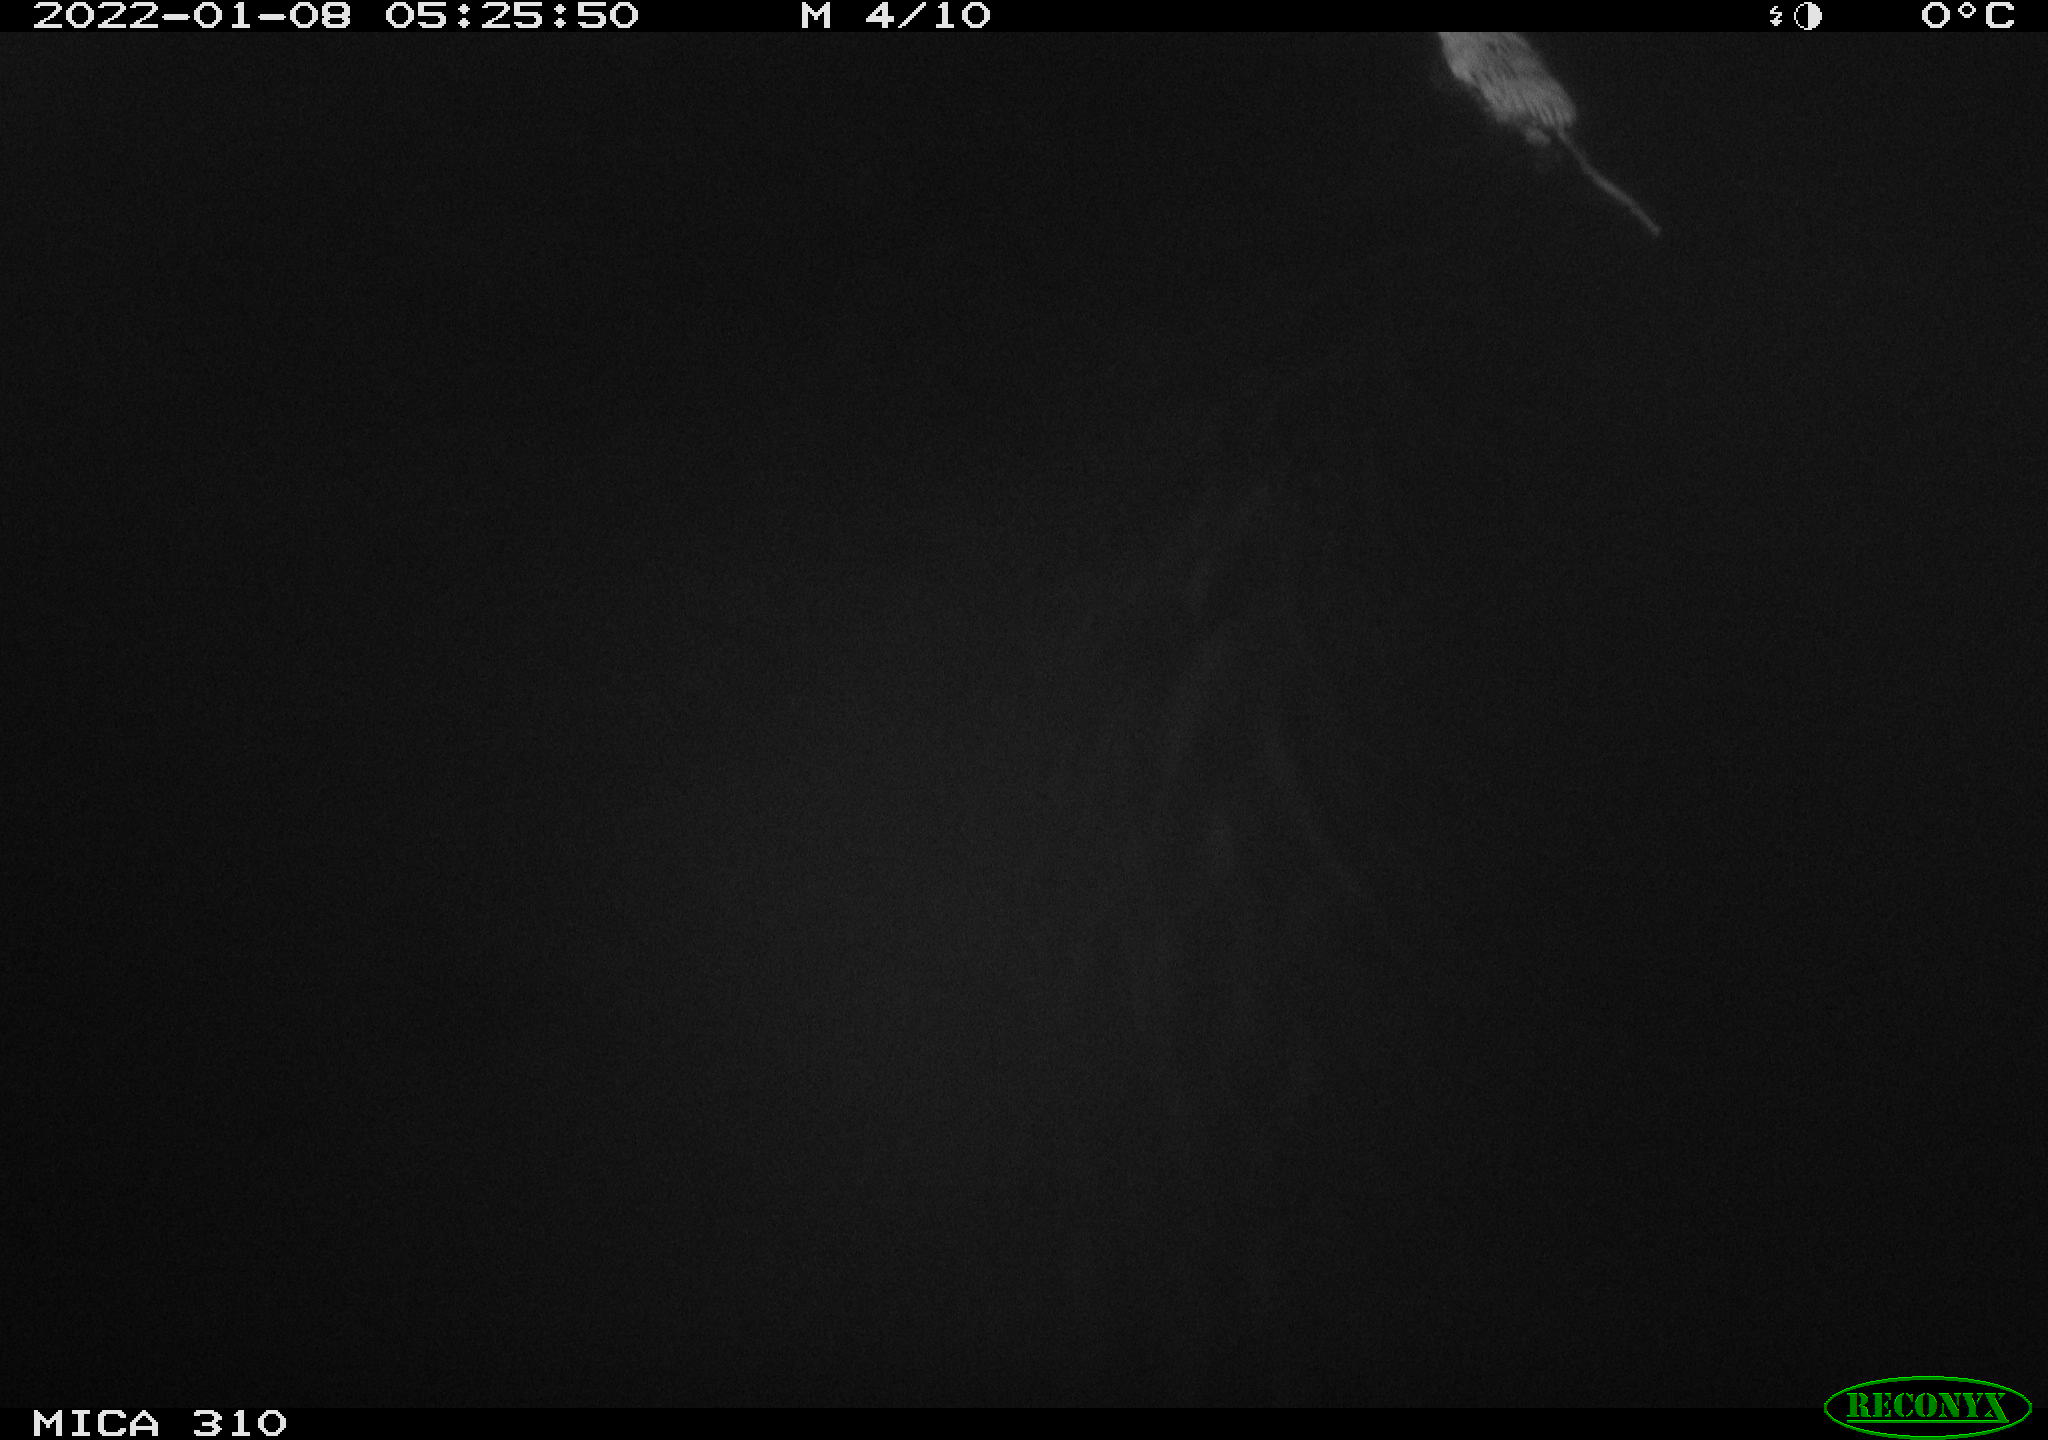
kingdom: Animalia
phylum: Chordata
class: Mammalia
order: Rodentia
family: Cricetidae
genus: Ondatra
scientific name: Ondatra zibethicus
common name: Muskrat
